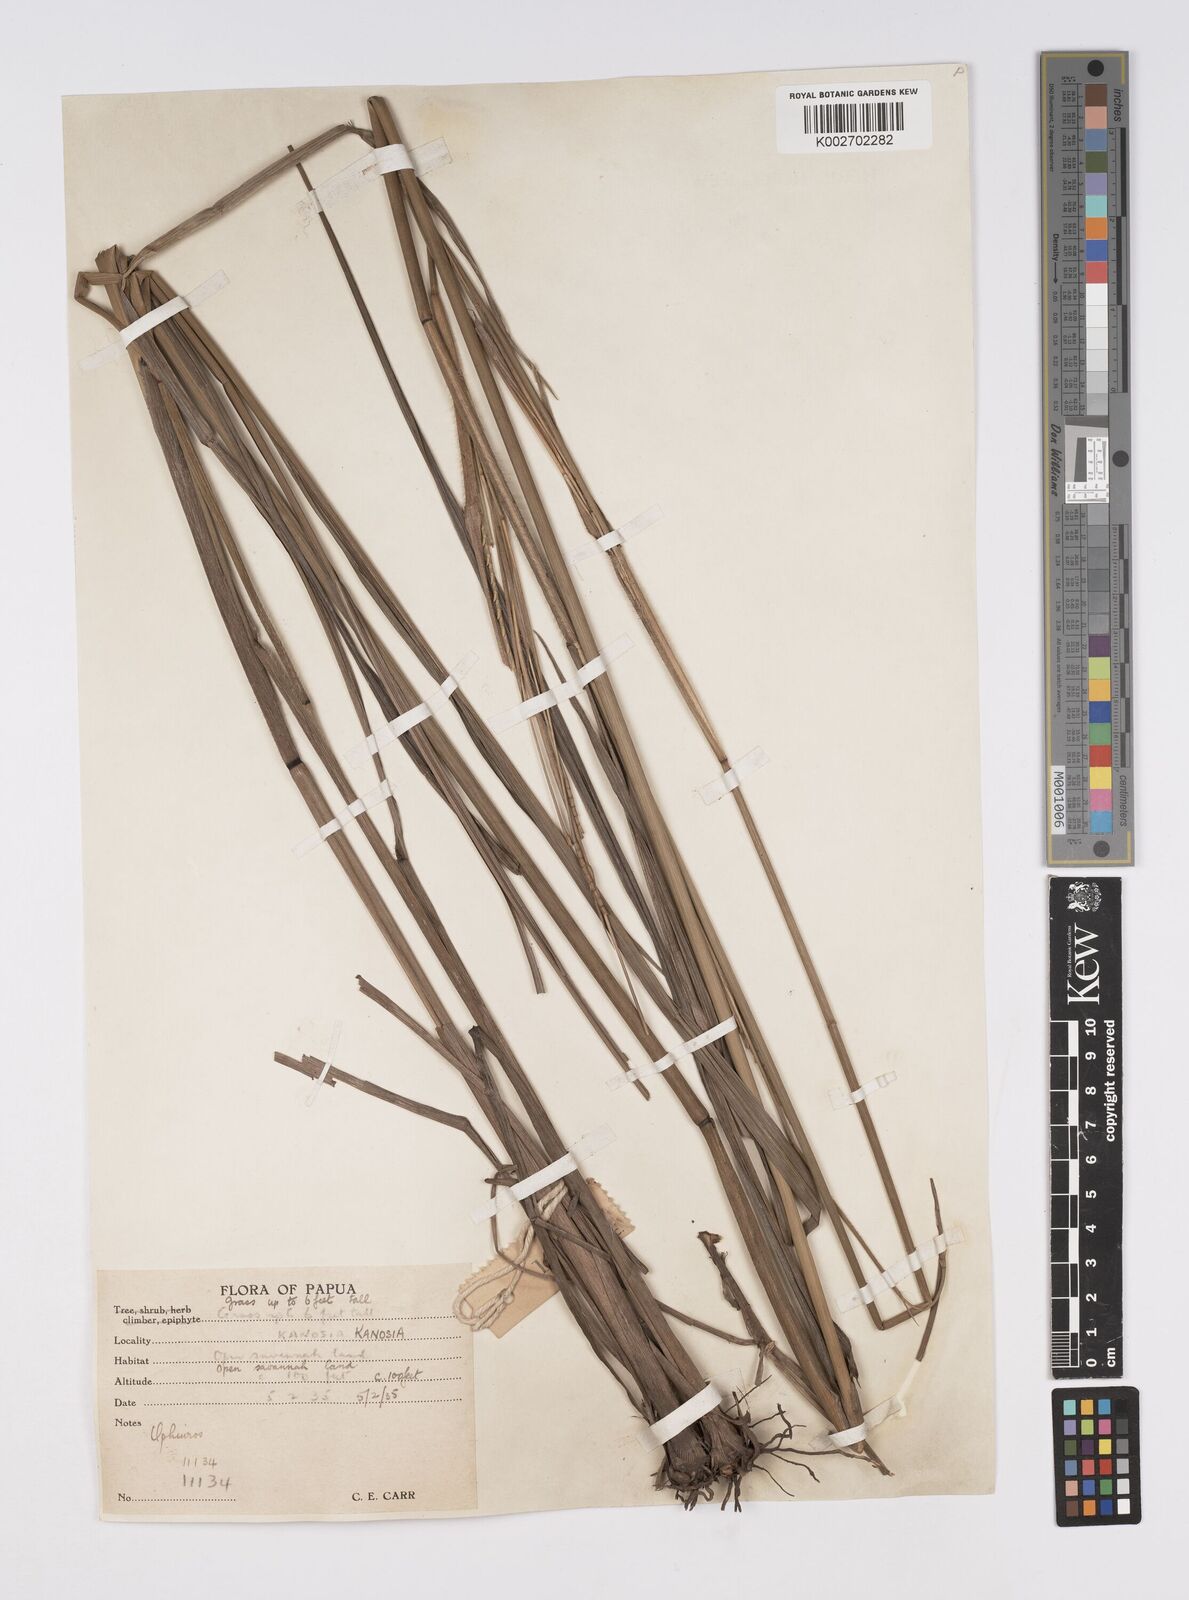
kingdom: Plantae
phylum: Tracheophyta
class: Liliopsida
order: Poales
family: Poaceae
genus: Ophiuros
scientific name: Ophiuros exaltatus
